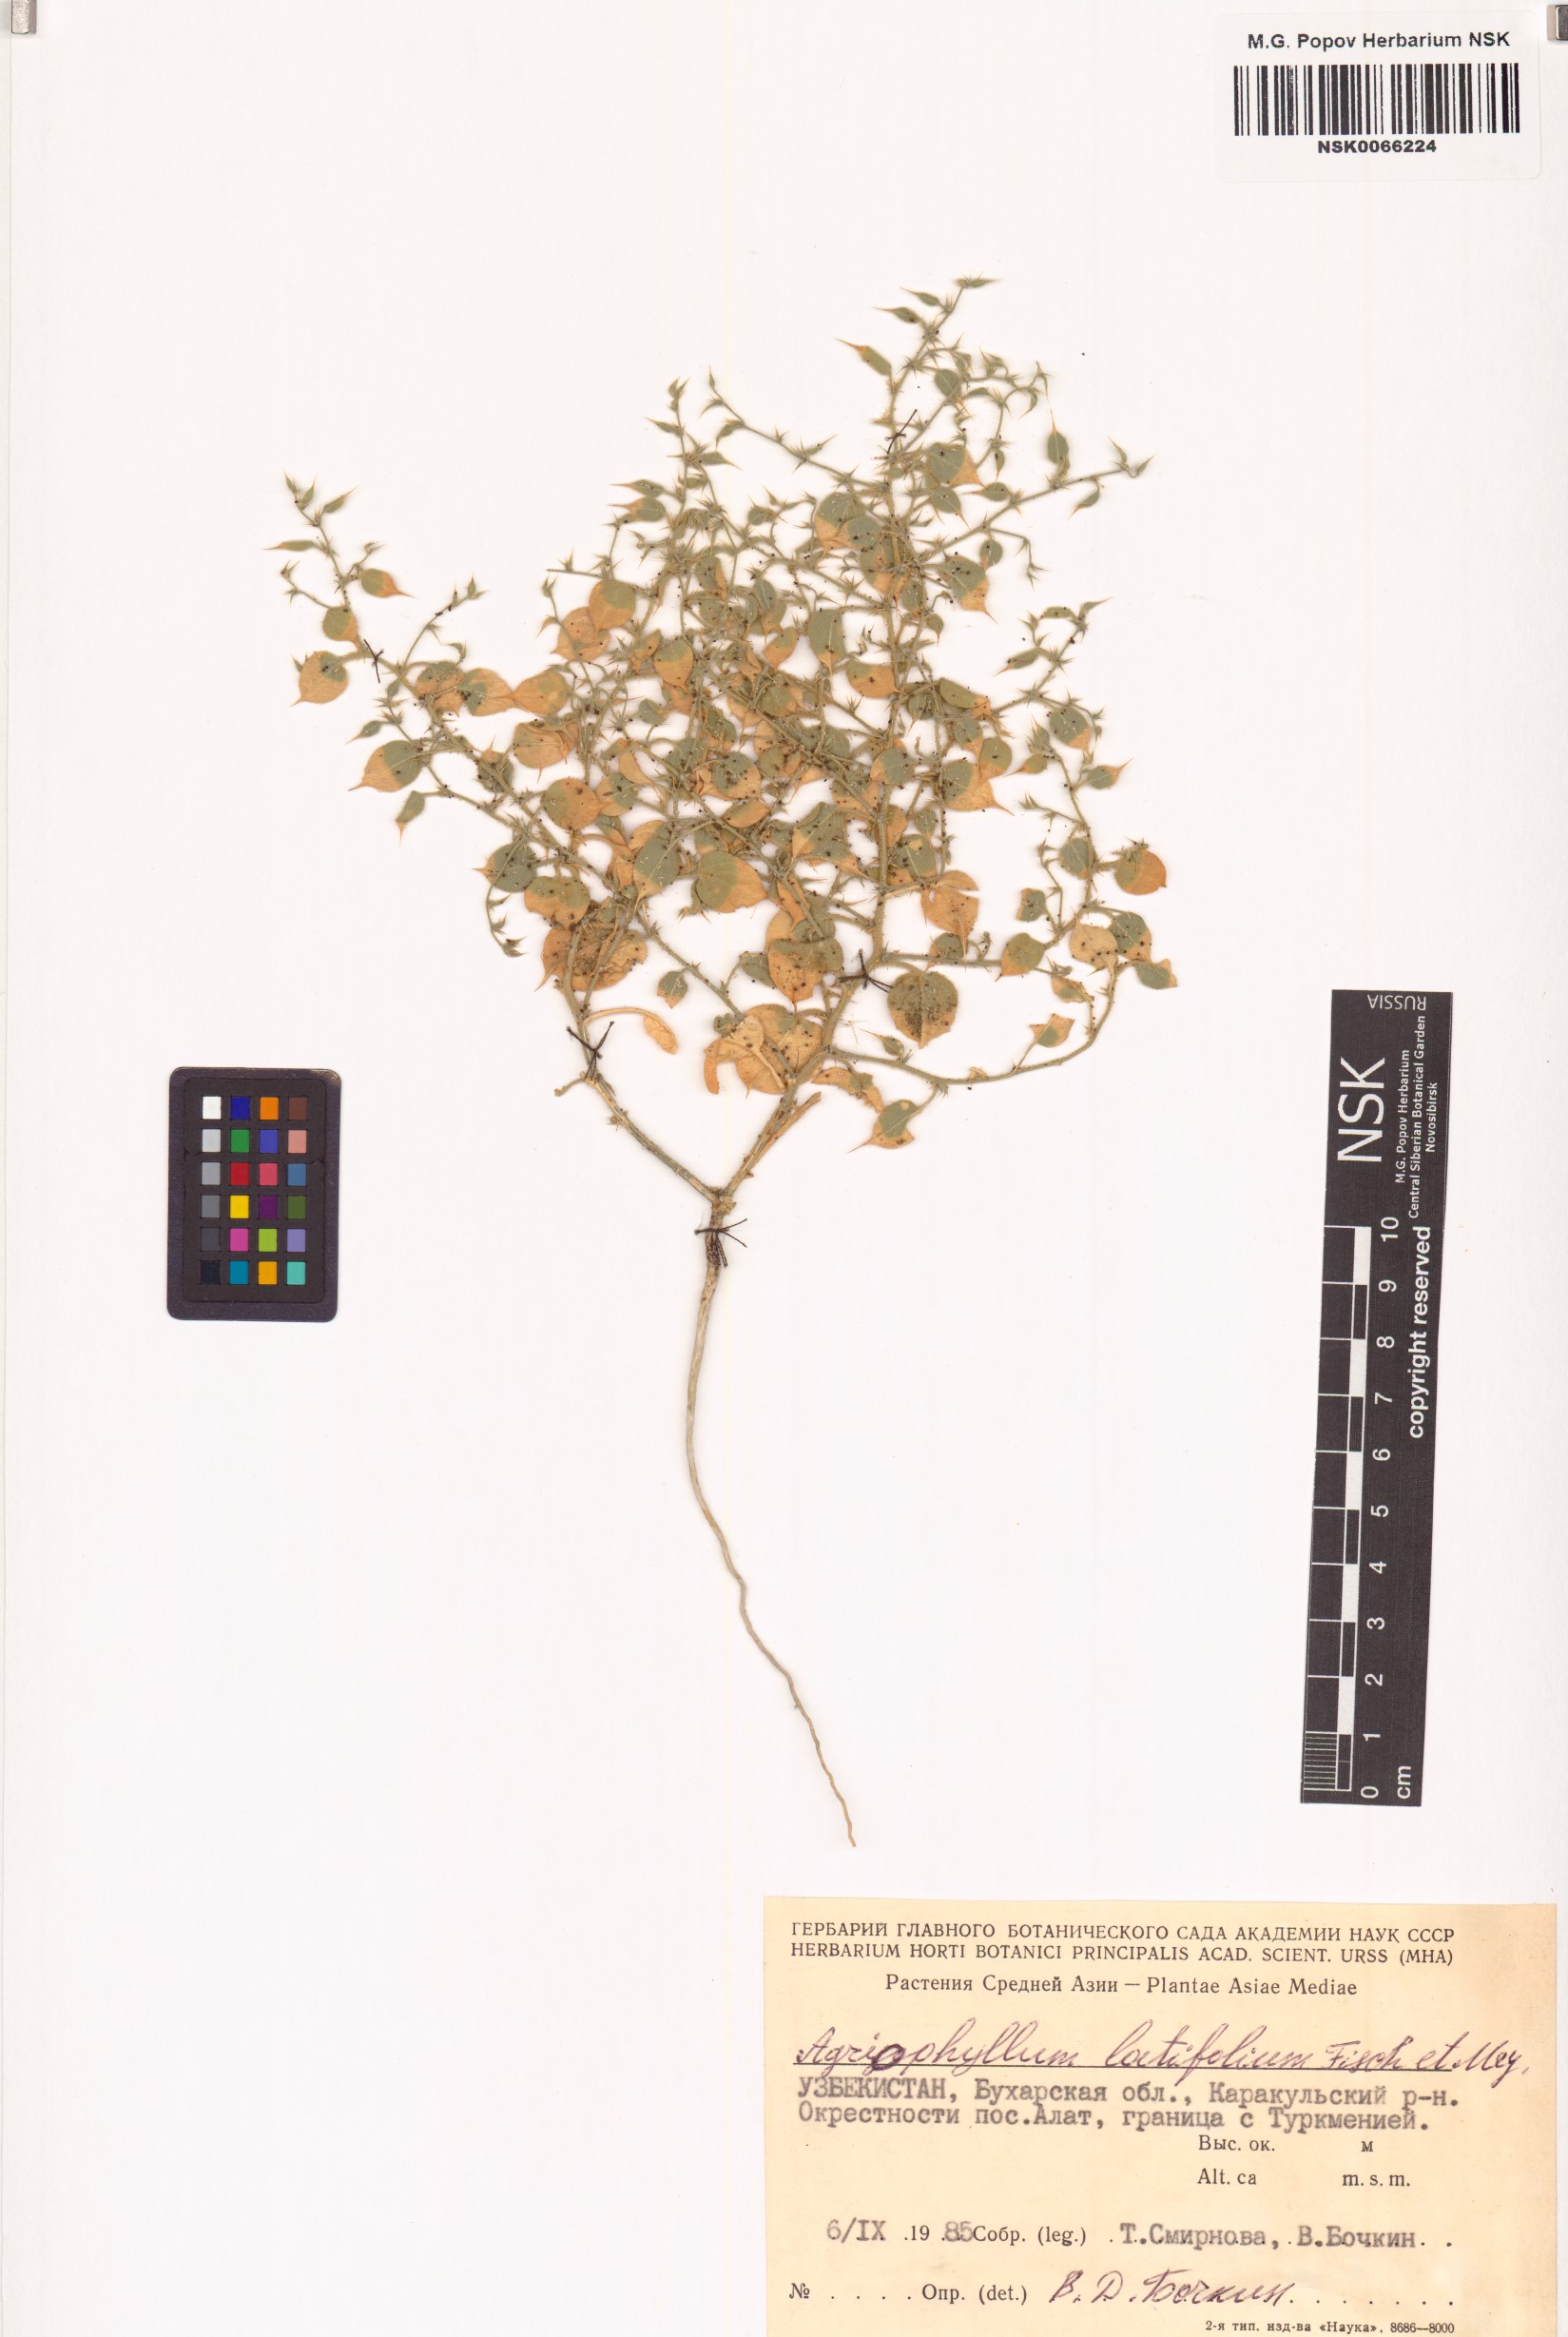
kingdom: Plantae
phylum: Tracheophyta
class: Magnoliopsida
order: Caryophyllales
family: Amaranthaceae
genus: Agriophyllum
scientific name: Agriophyllum latifolium
